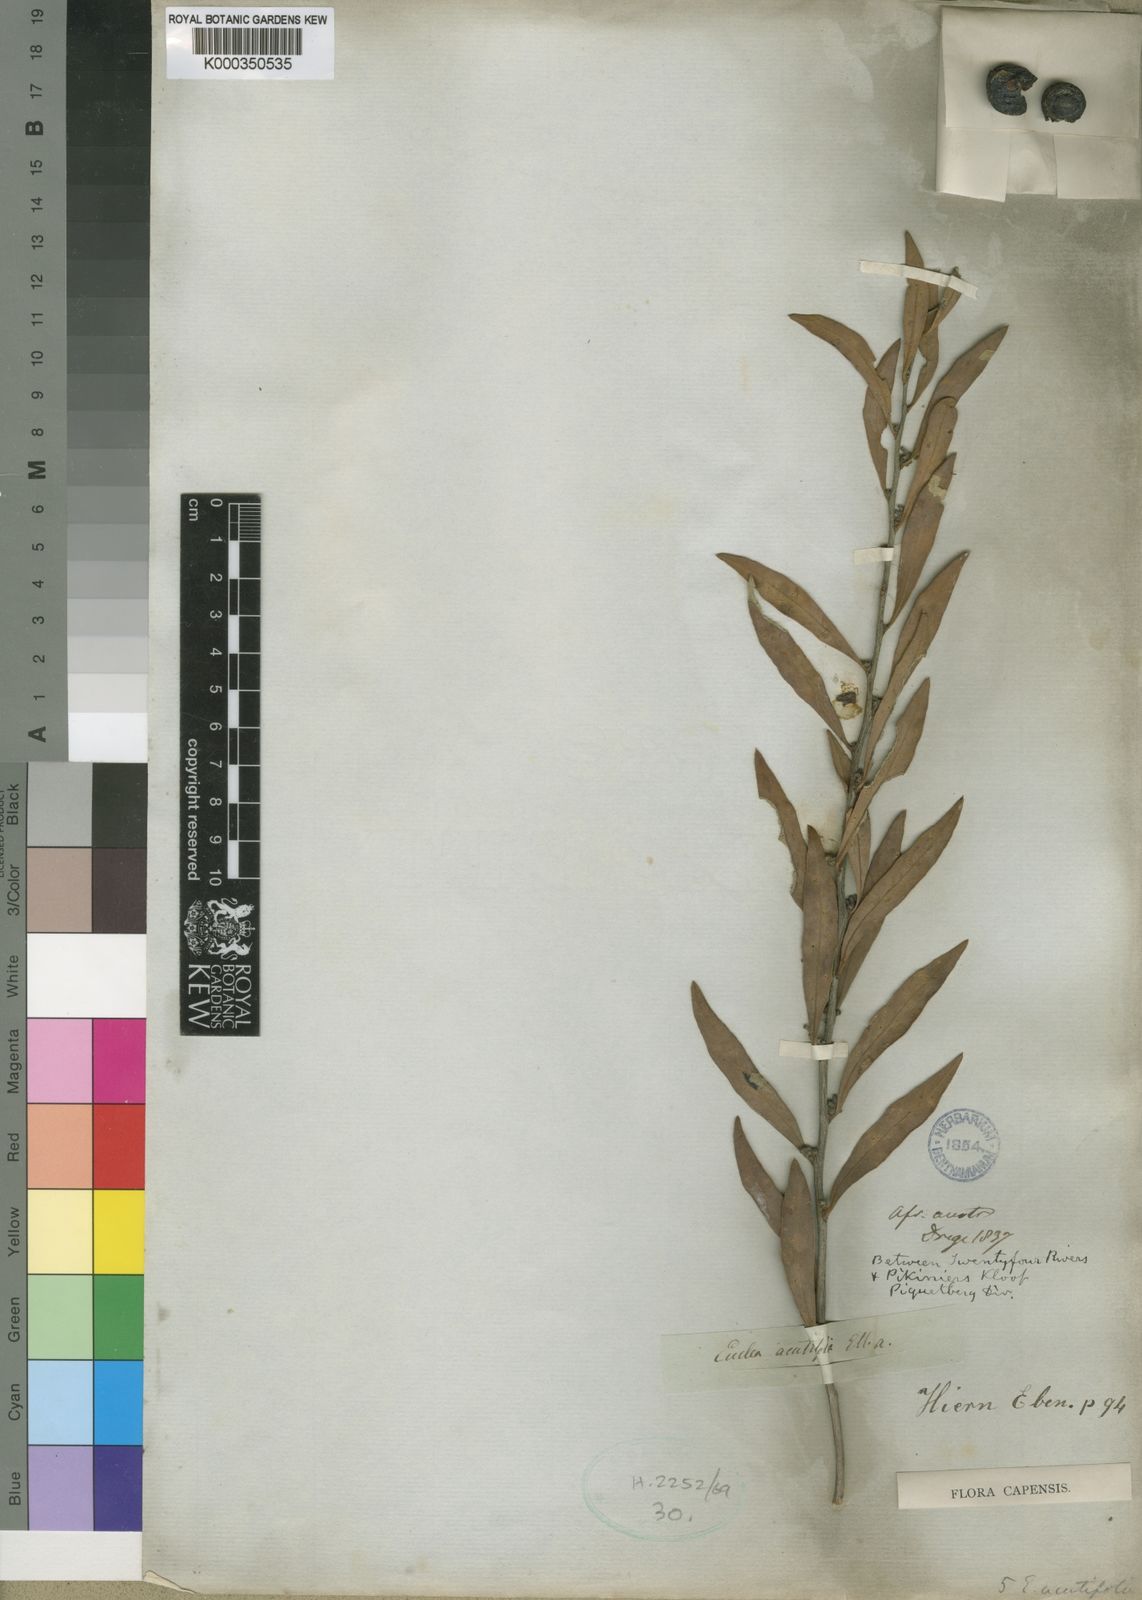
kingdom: Plantae
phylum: Tracheophyta
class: Magnoliopsida
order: Ericales
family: Ebenaceae
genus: Euclea
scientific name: Euclea
